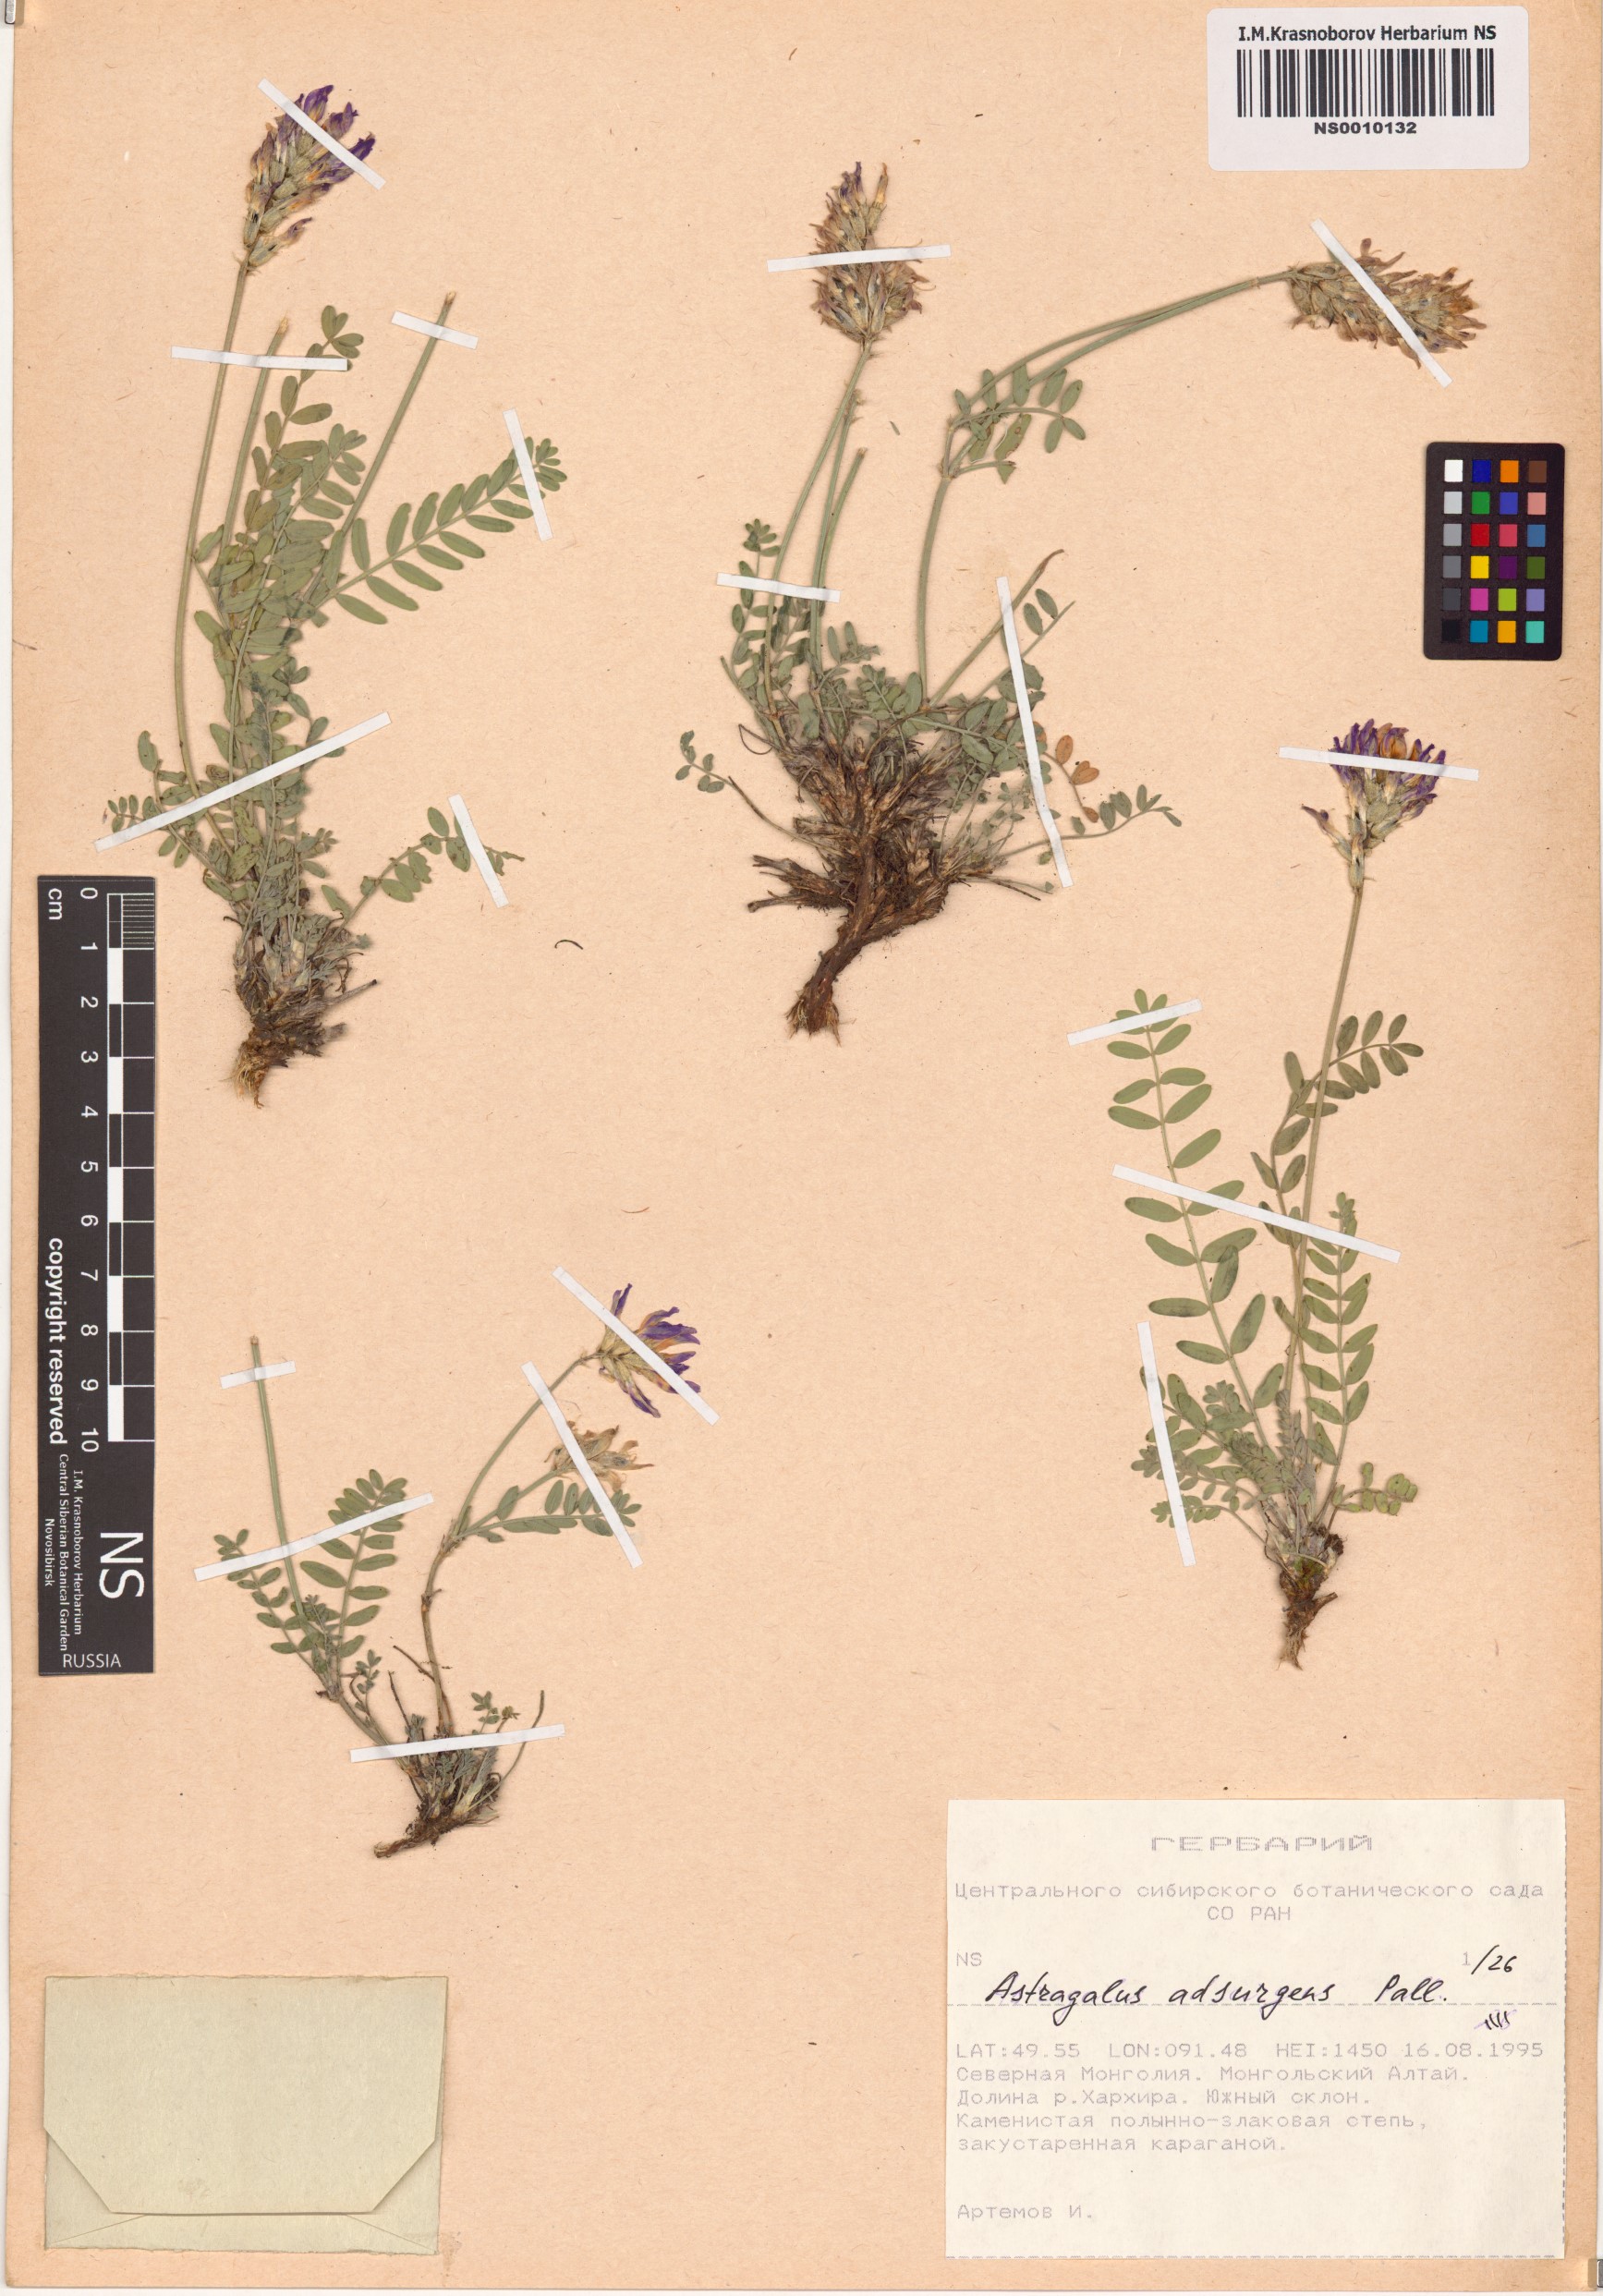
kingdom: Plantae
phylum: Tracheophyta
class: Magnoliopsida
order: Fabales
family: Fabaceae
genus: Astragalus
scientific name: Astragalus laxmannii
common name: Laxmann's milk-vetch
